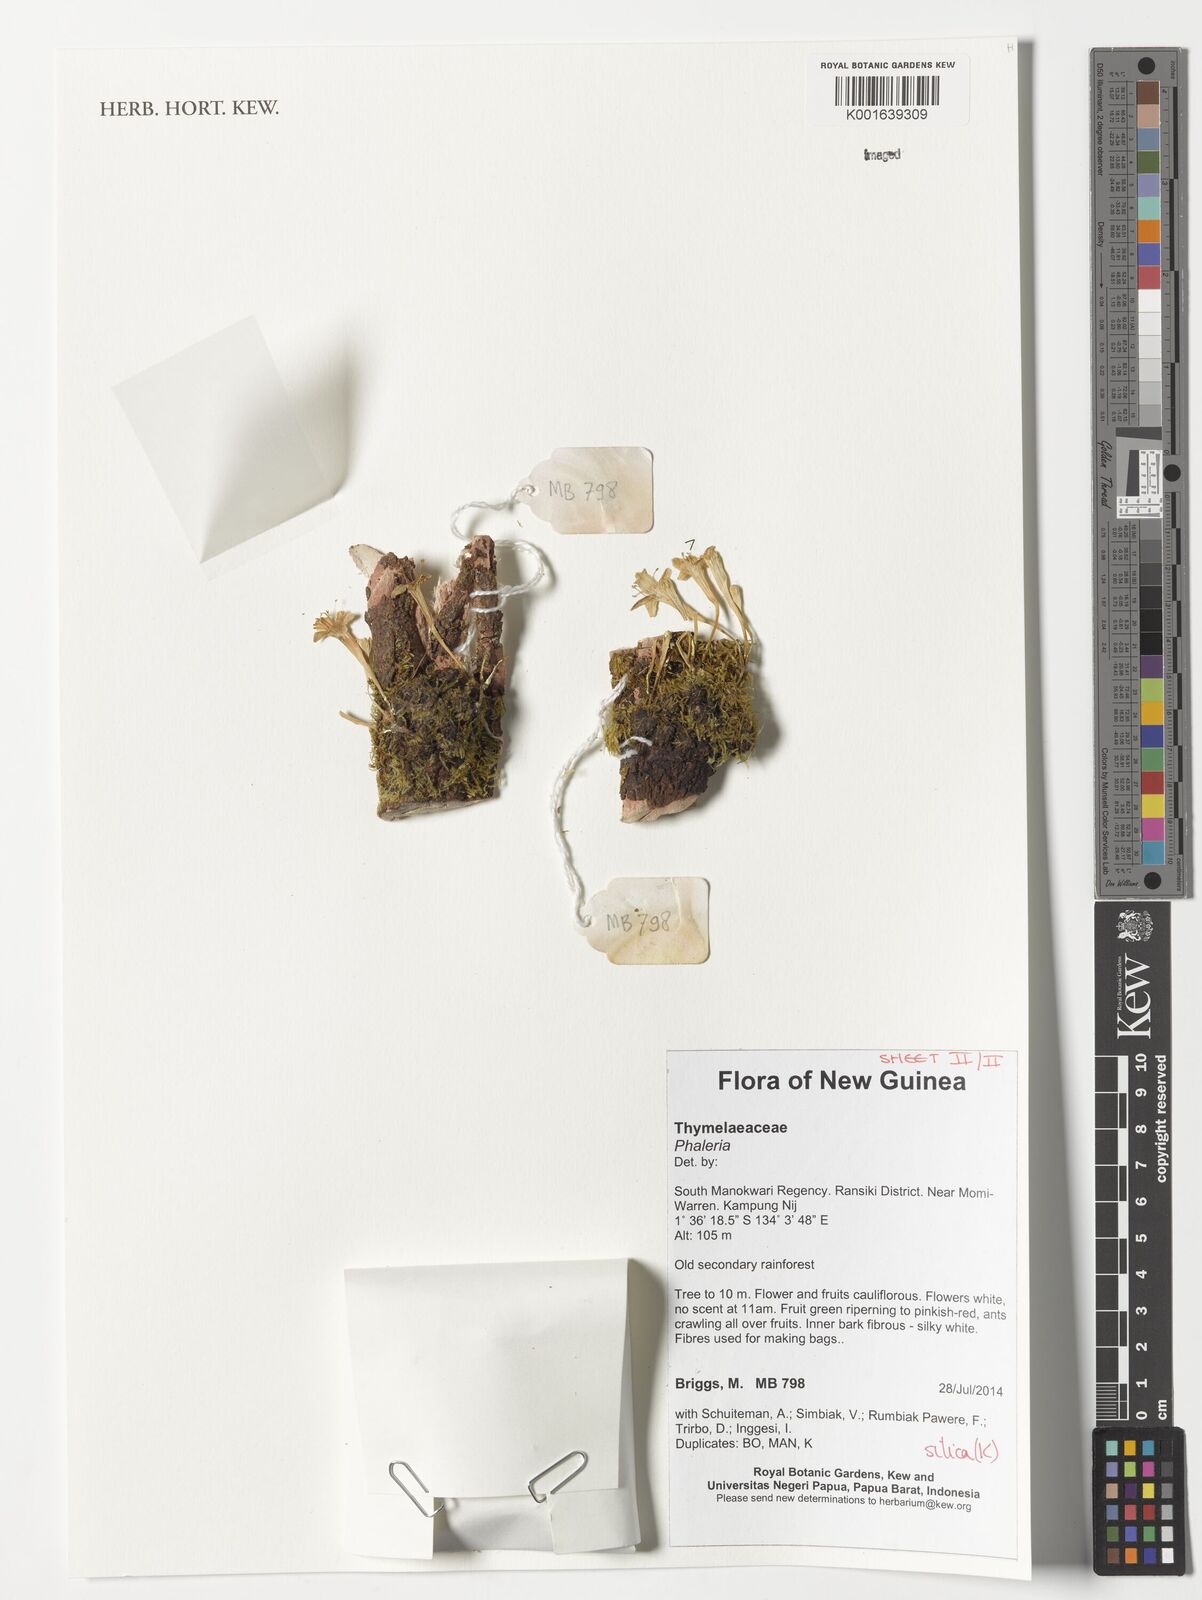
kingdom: Plantae
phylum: Tracheophyta
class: Magnoliopsida
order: Malvales
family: Thymelaeaceae
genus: Phaleria
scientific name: Phaleria
